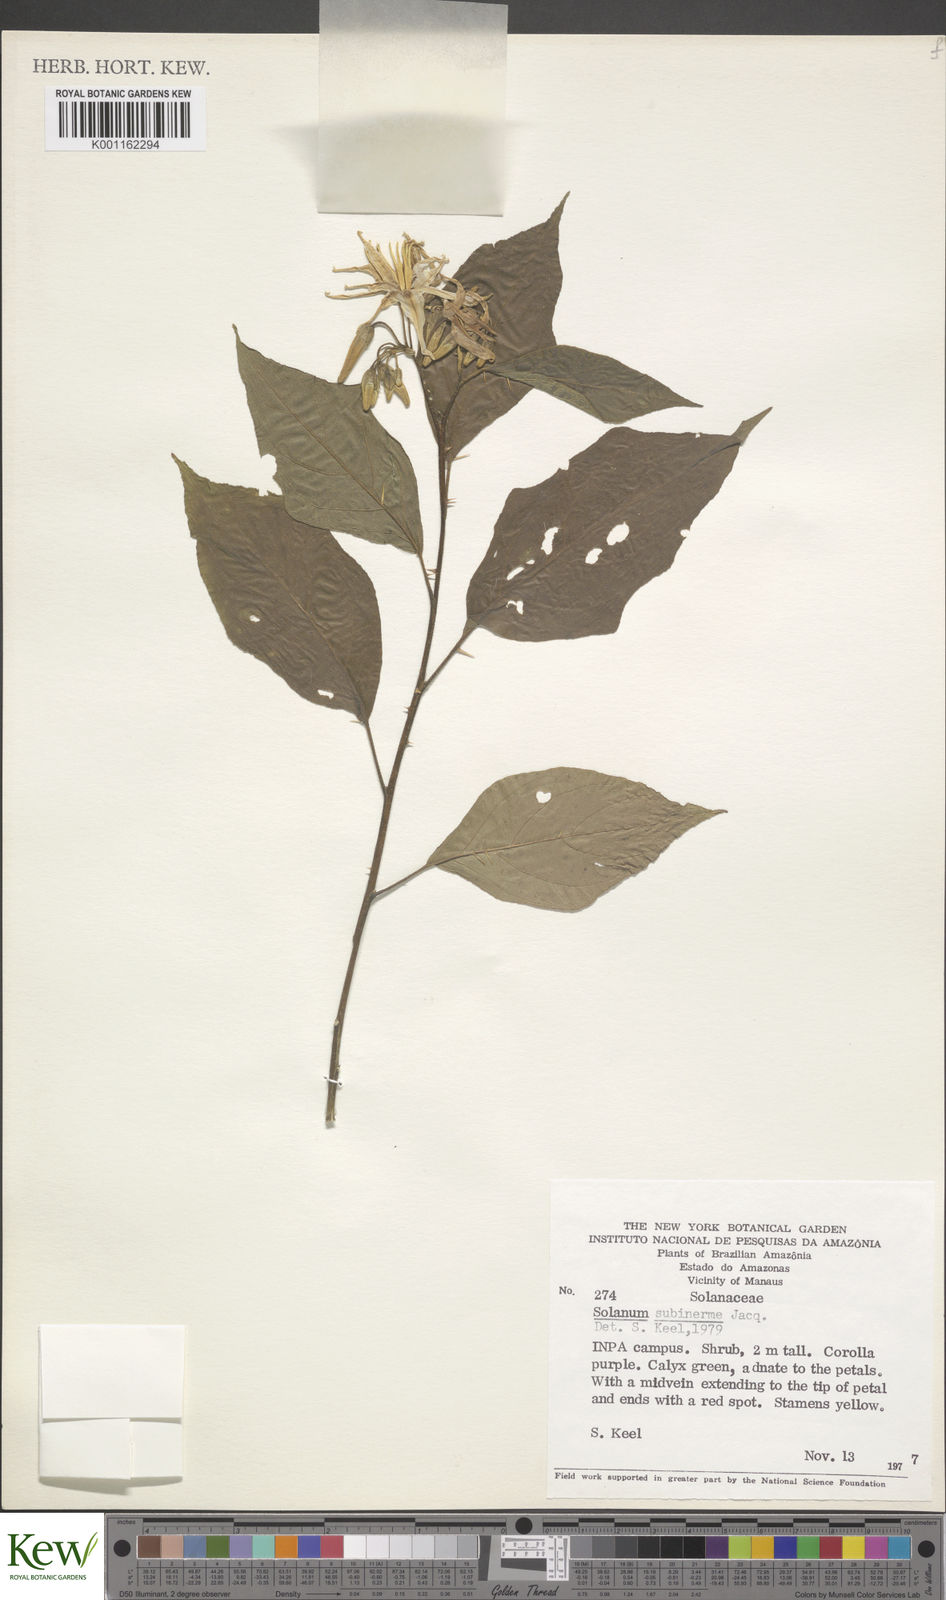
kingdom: Plantae
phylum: Tracheophyta
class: Magnoliopsida
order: Solanales
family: Solanaceae
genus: Solanum
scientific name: Solanum subinerme
